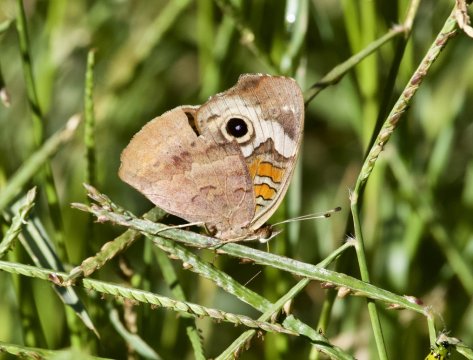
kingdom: Animalia
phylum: Arthropoda
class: Insecta
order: Lepidoptera
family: Nymphalidae
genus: Junonia
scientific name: Junonia coenia
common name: Common Buckeye
